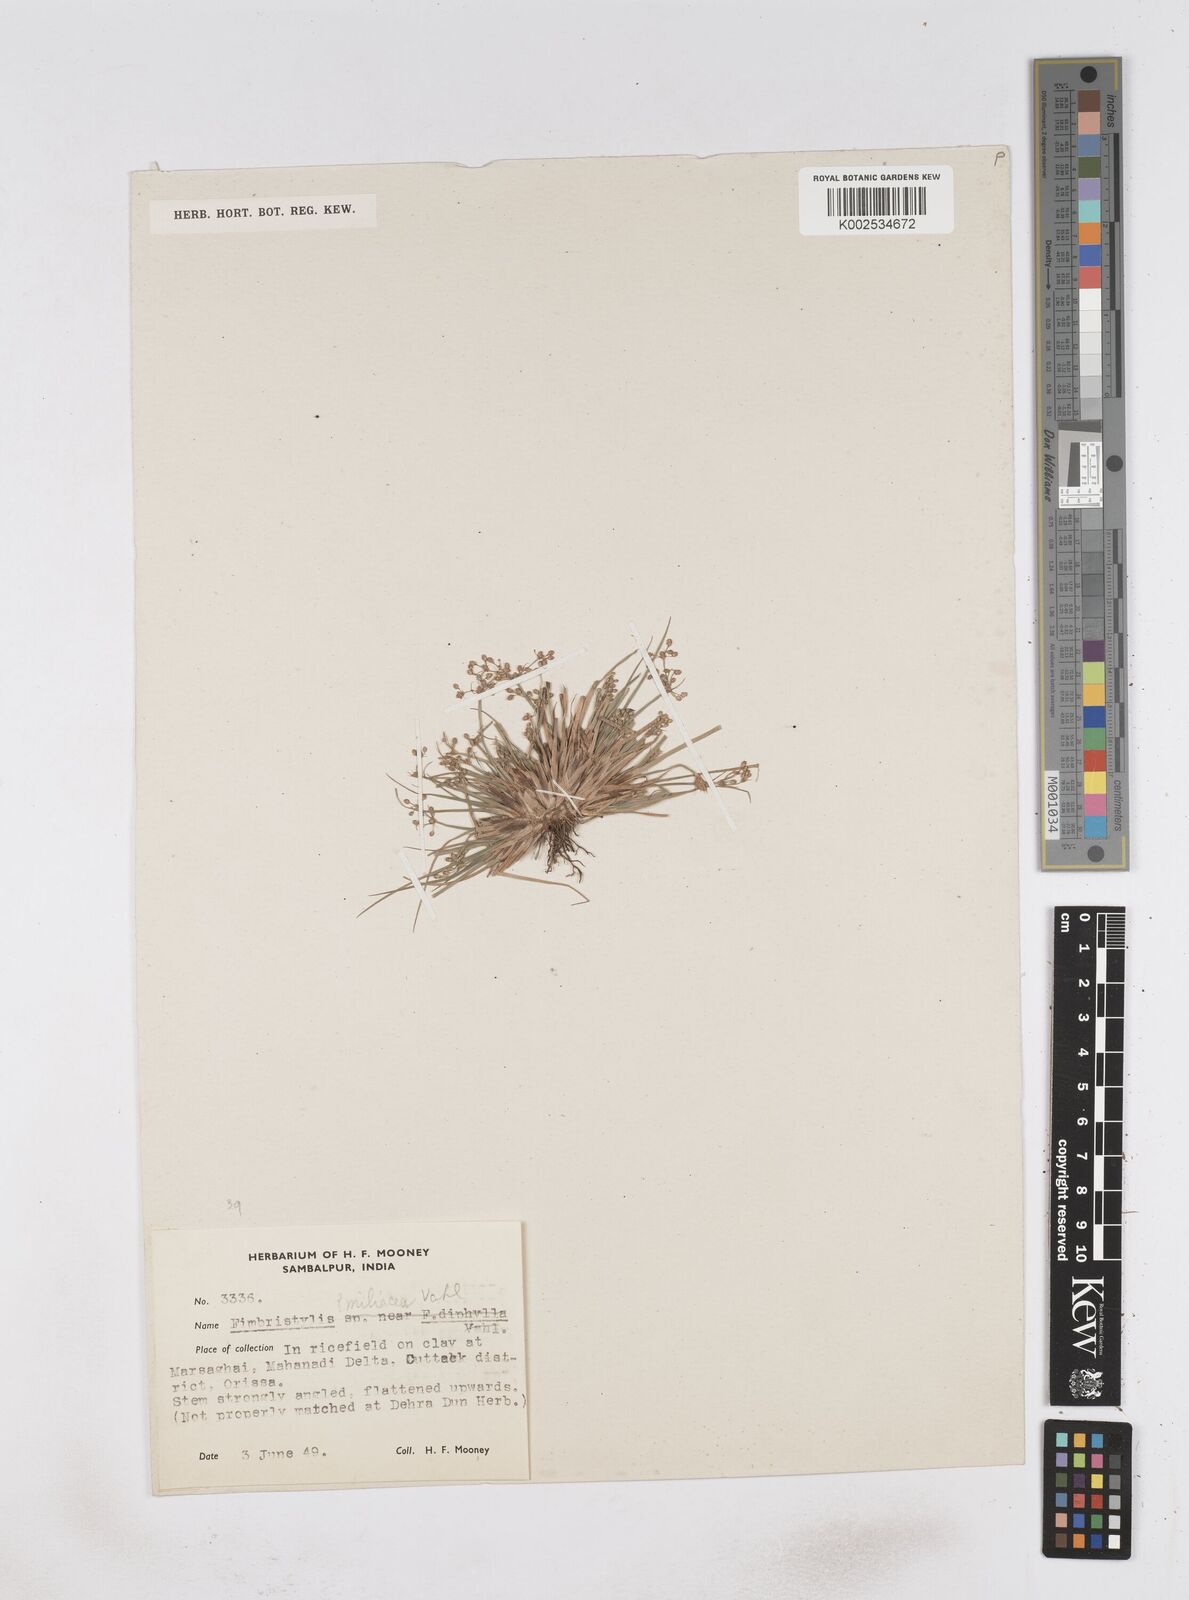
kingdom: Plantae
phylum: Tracheophyta
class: Liliopsida
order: Poales
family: Cyperaceae
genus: Fimbristylis
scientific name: Fimbristylis littoralis
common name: Fimbry
